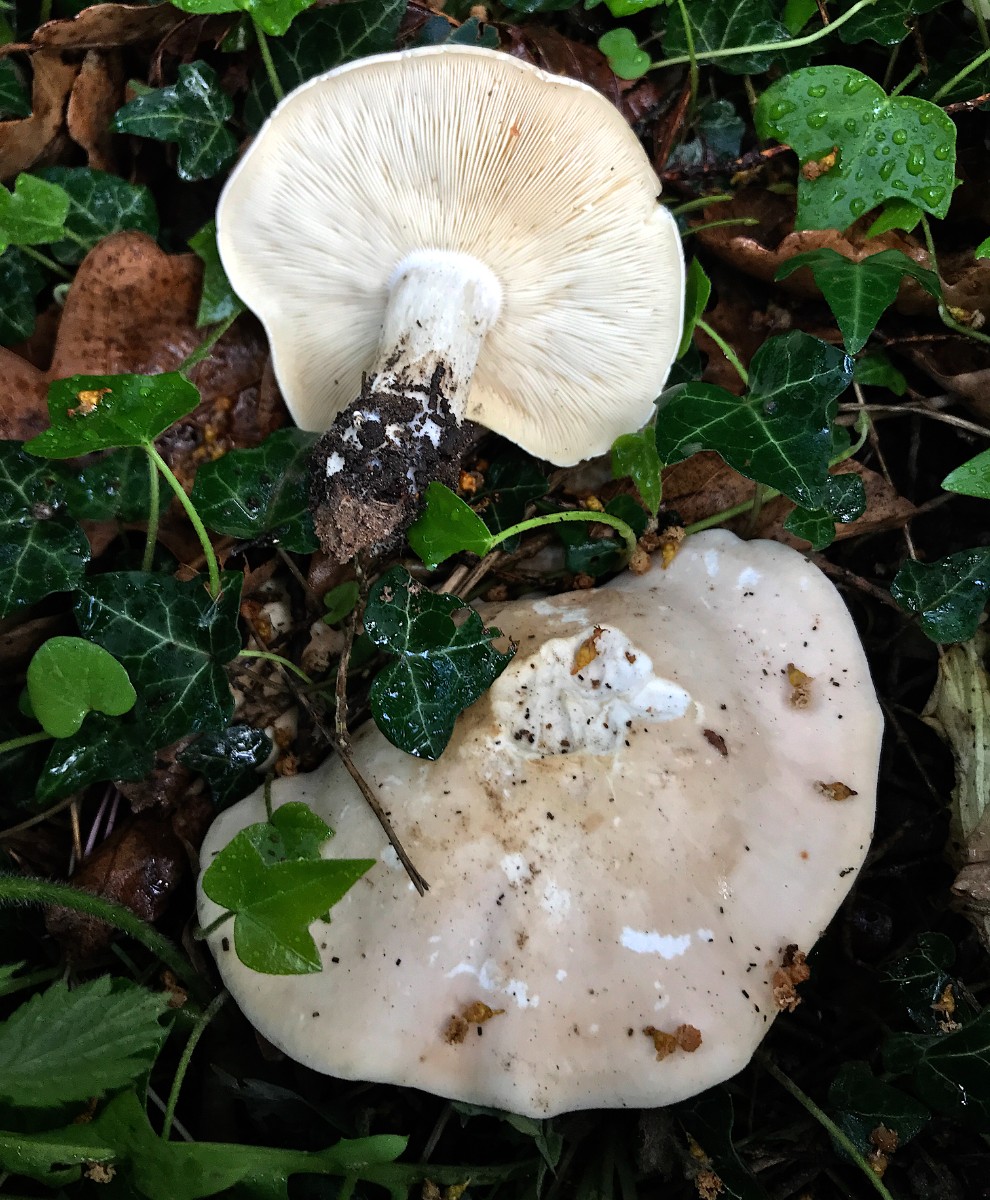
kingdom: Fungi
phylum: Basidiomycota
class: Agaricomycetes
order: Agaricales
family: Lyophyllaceae
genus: Calocybe
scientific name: Calocybe gambosa
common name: vårmusseron
